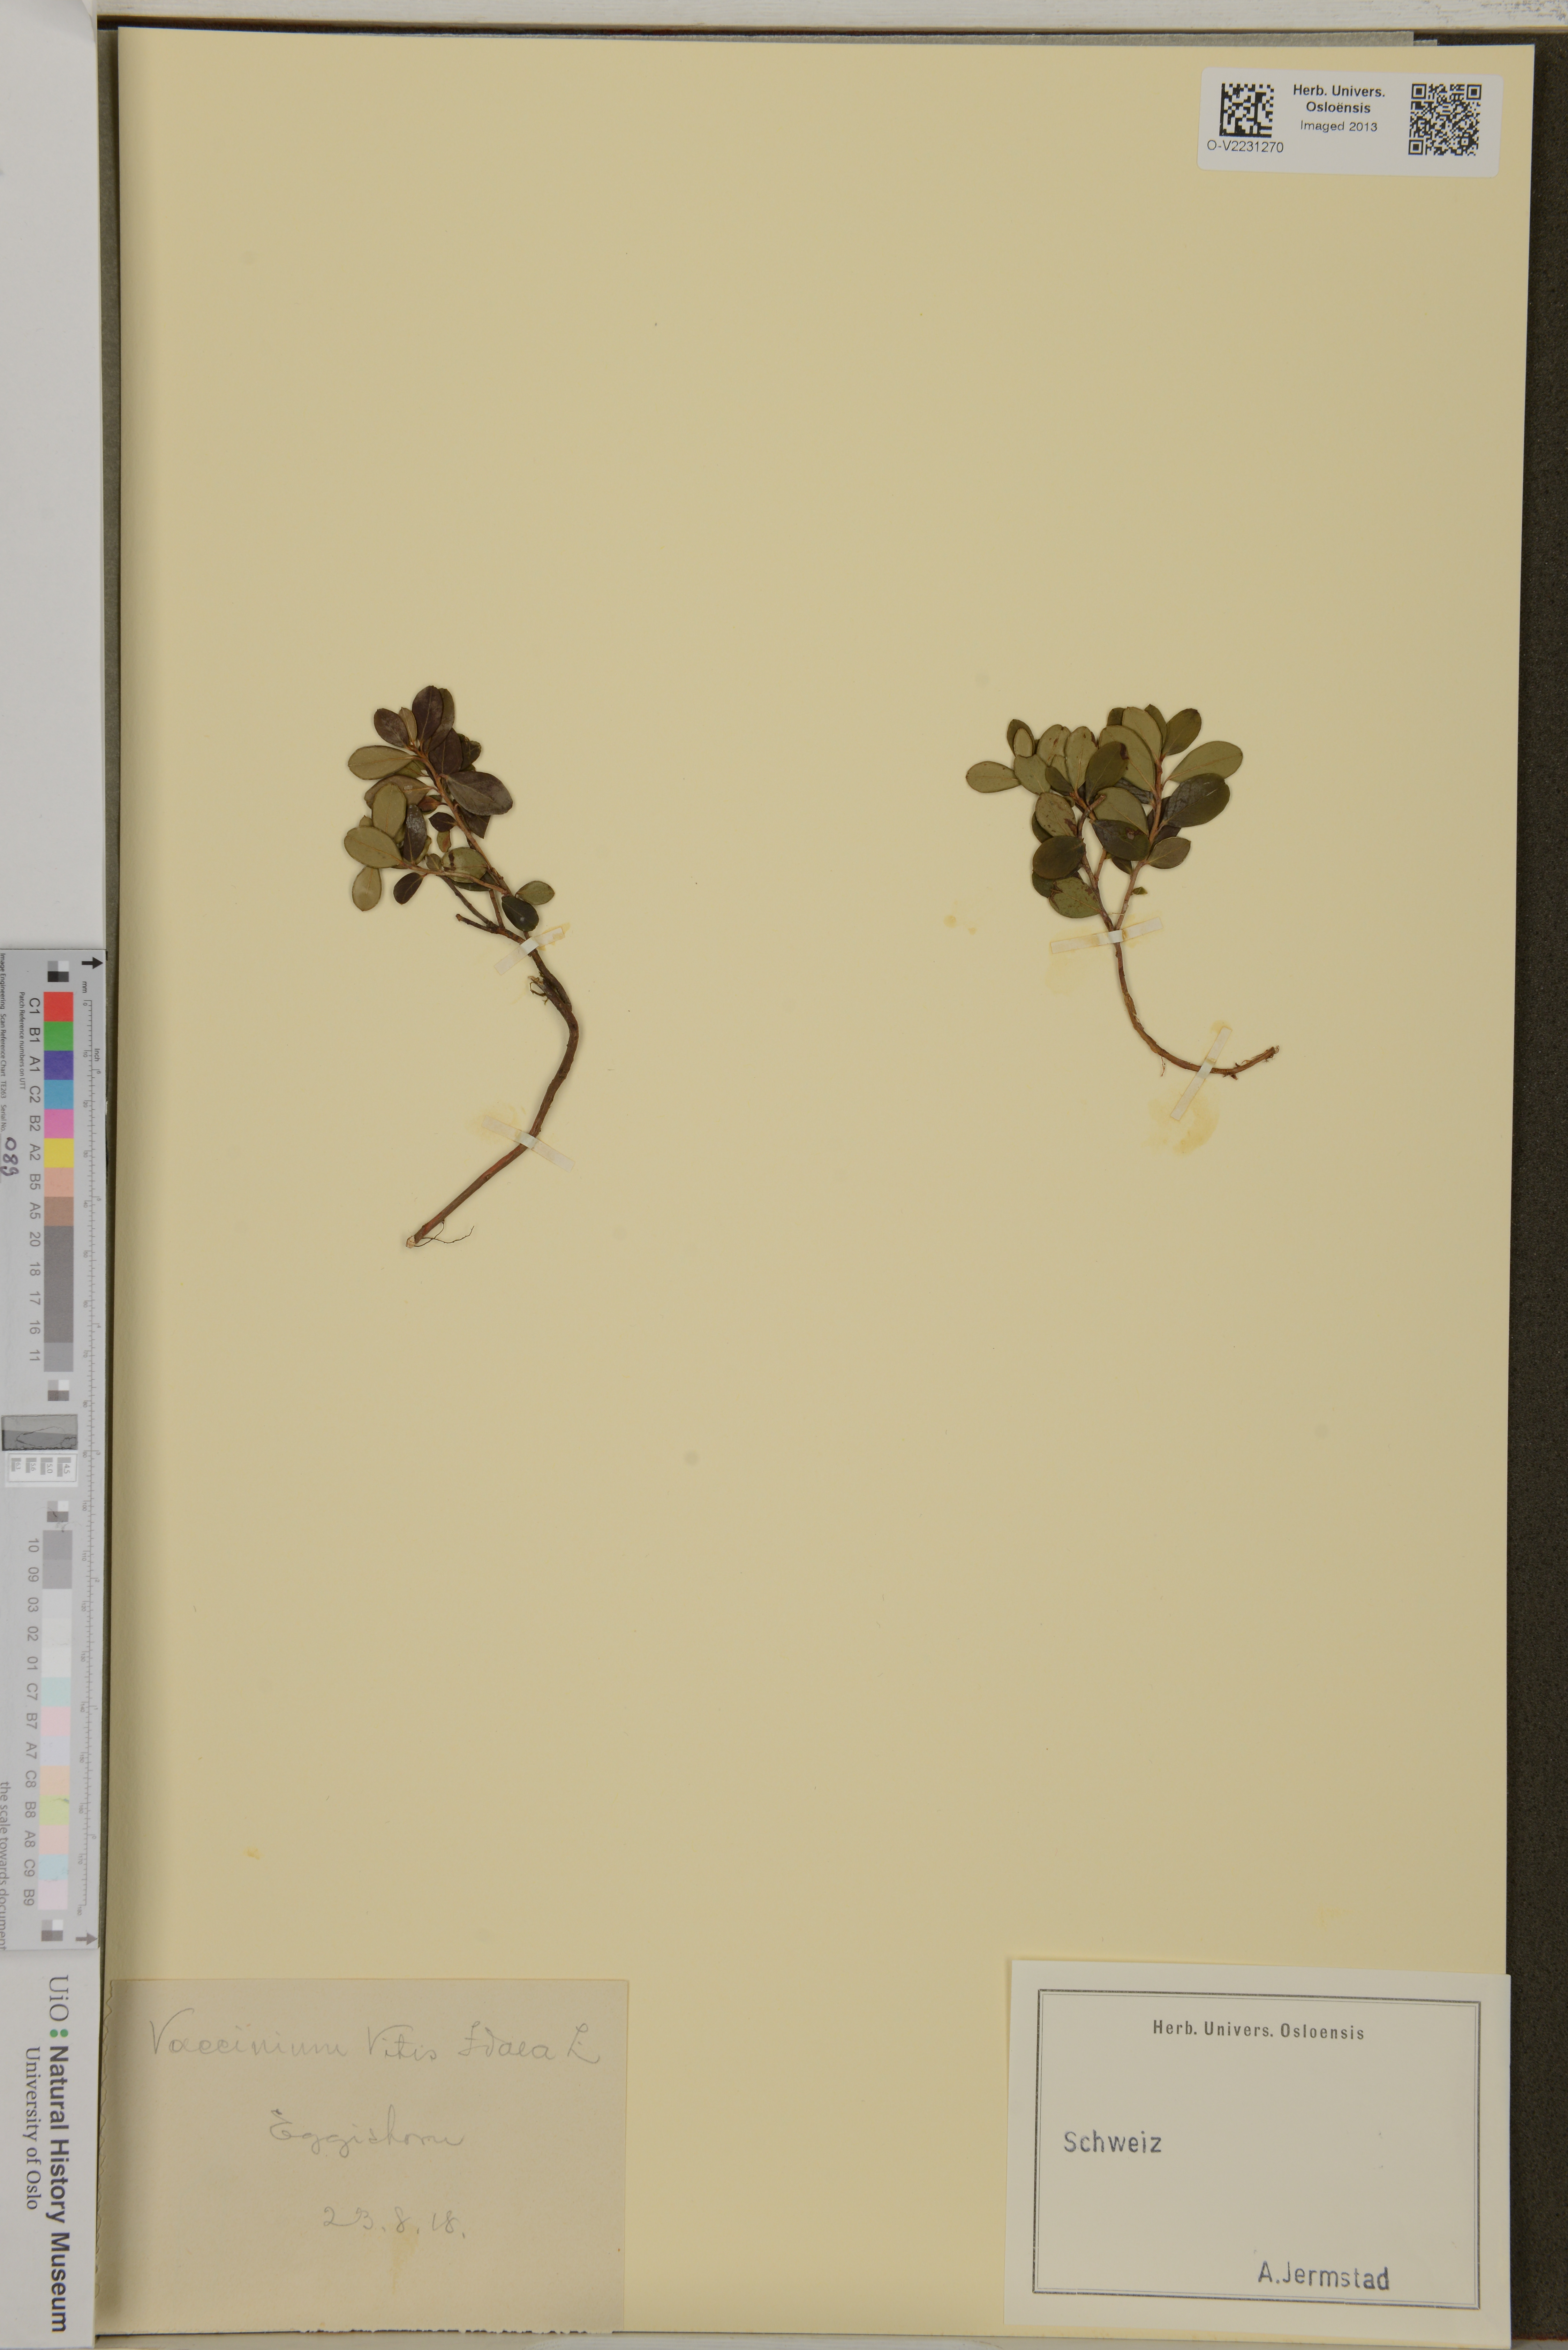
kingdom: Plantae
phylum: Tracheophyta
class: Magnoliopsida
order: Ericales
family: Ericaceae
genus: Vaccinium
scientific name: Vaccinium vitis-idaea
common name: Cowberry
